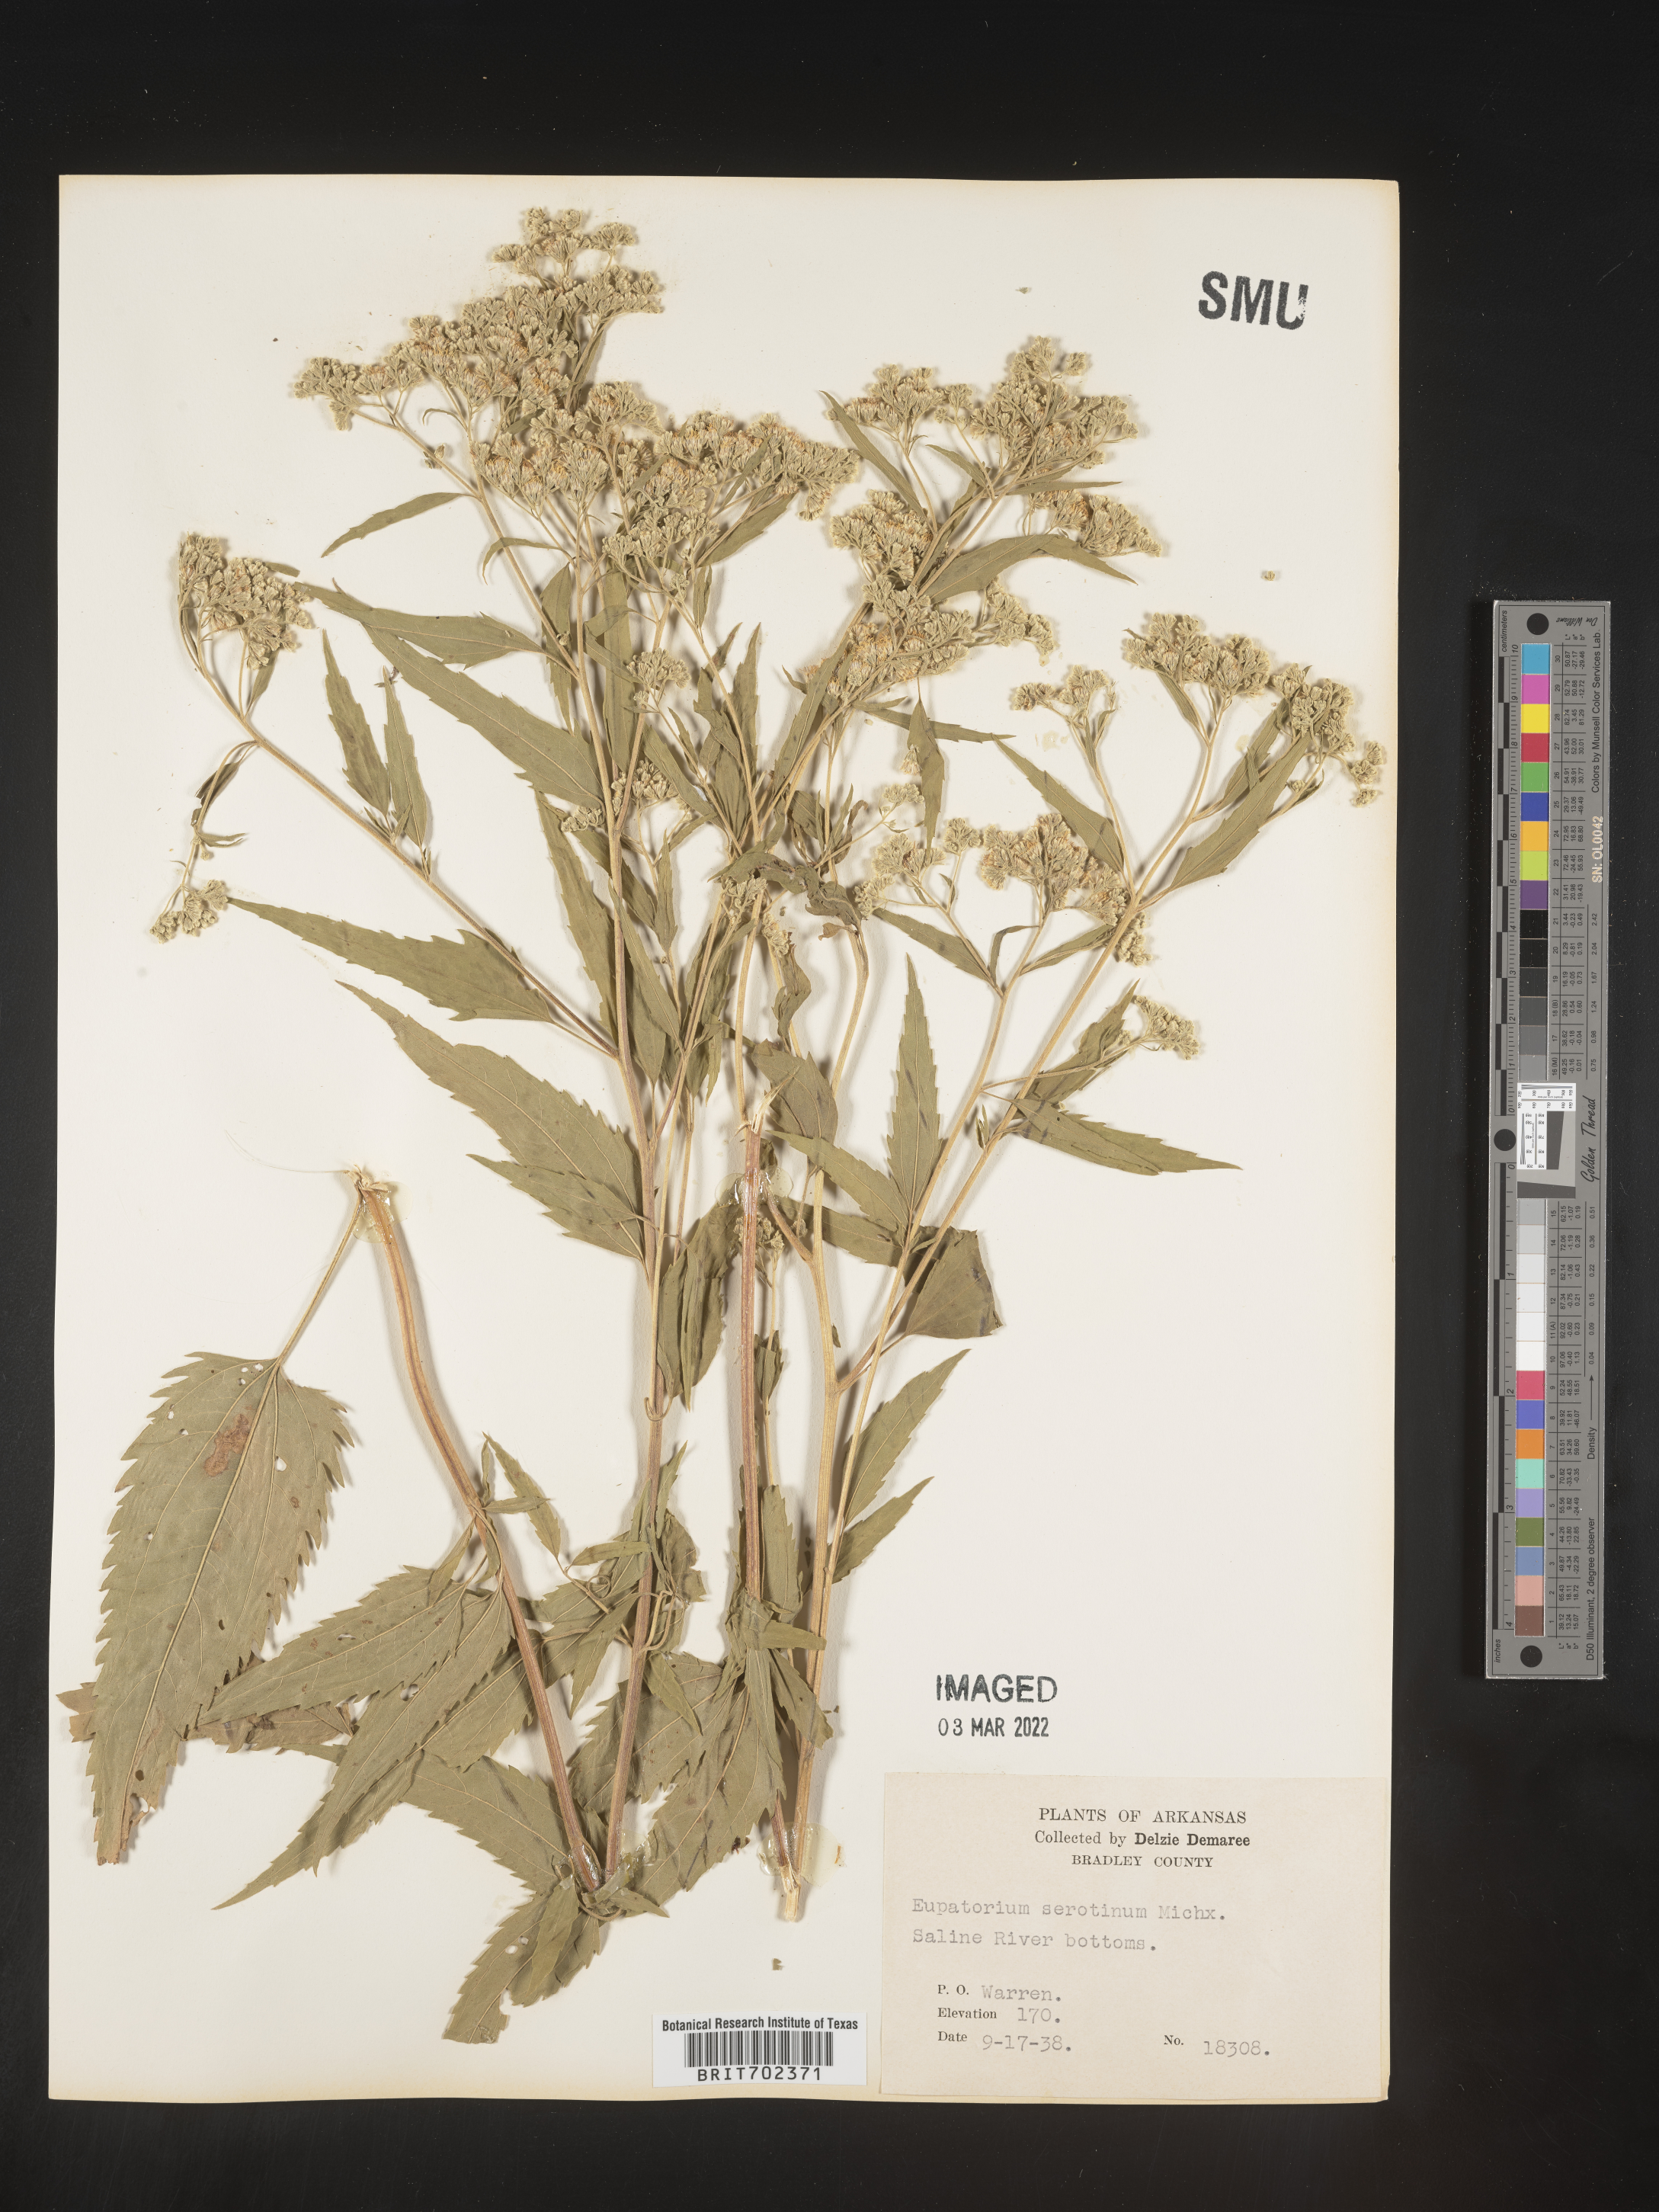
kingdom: Plantae
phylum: Tracheophyta
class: Magnoliopsida
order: Asterales
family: Asteraceae
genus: Eupatorium
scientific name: Eupatorium serotinum
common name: Late boneset
